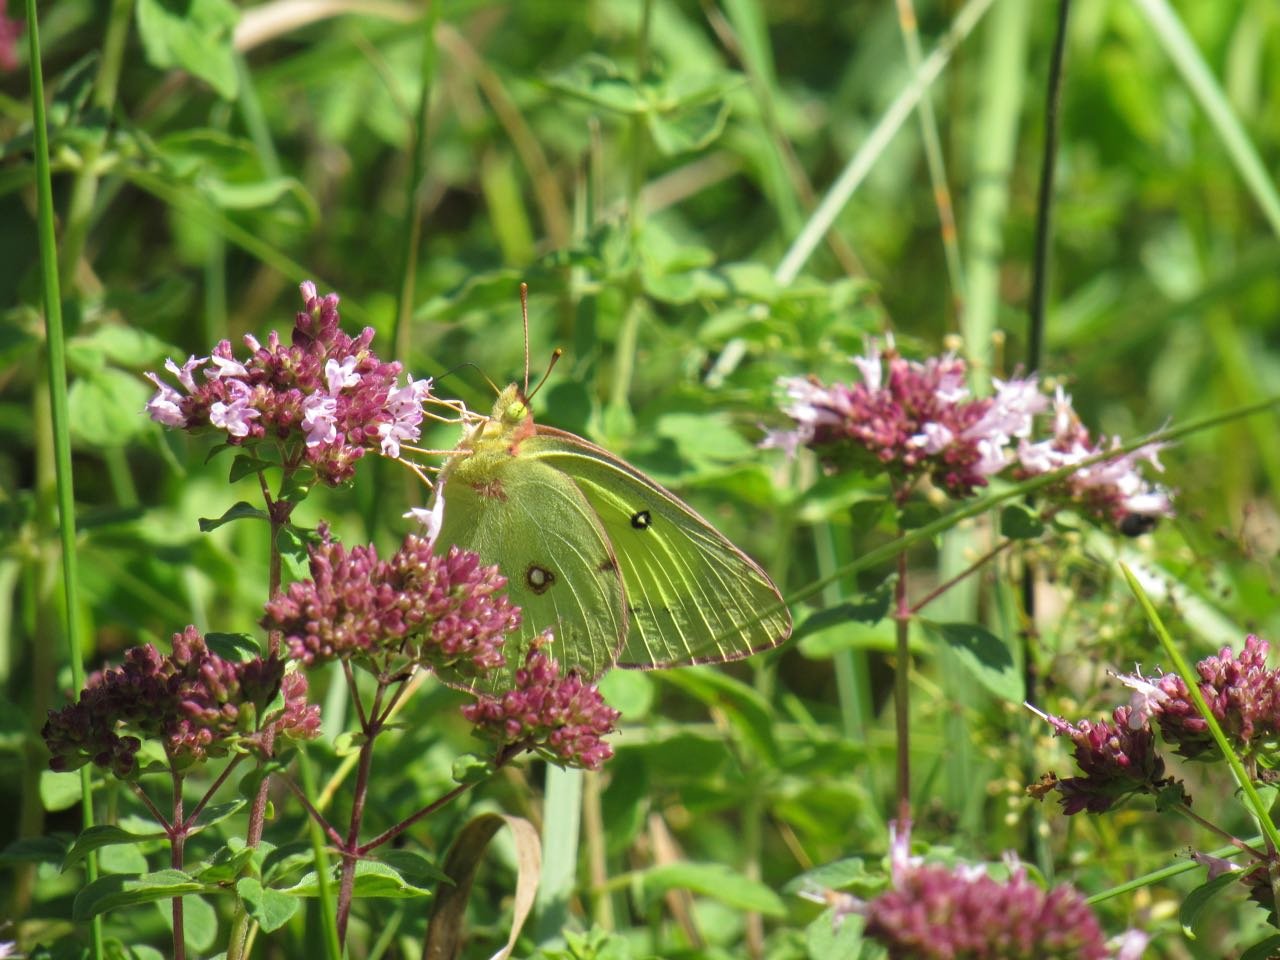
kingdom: Animalia
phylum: Arthropoda
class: Insecta
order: Lepidoptera
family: Pieridae
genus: Colias
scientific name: Colias philodice
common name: Clouded Sulphur
